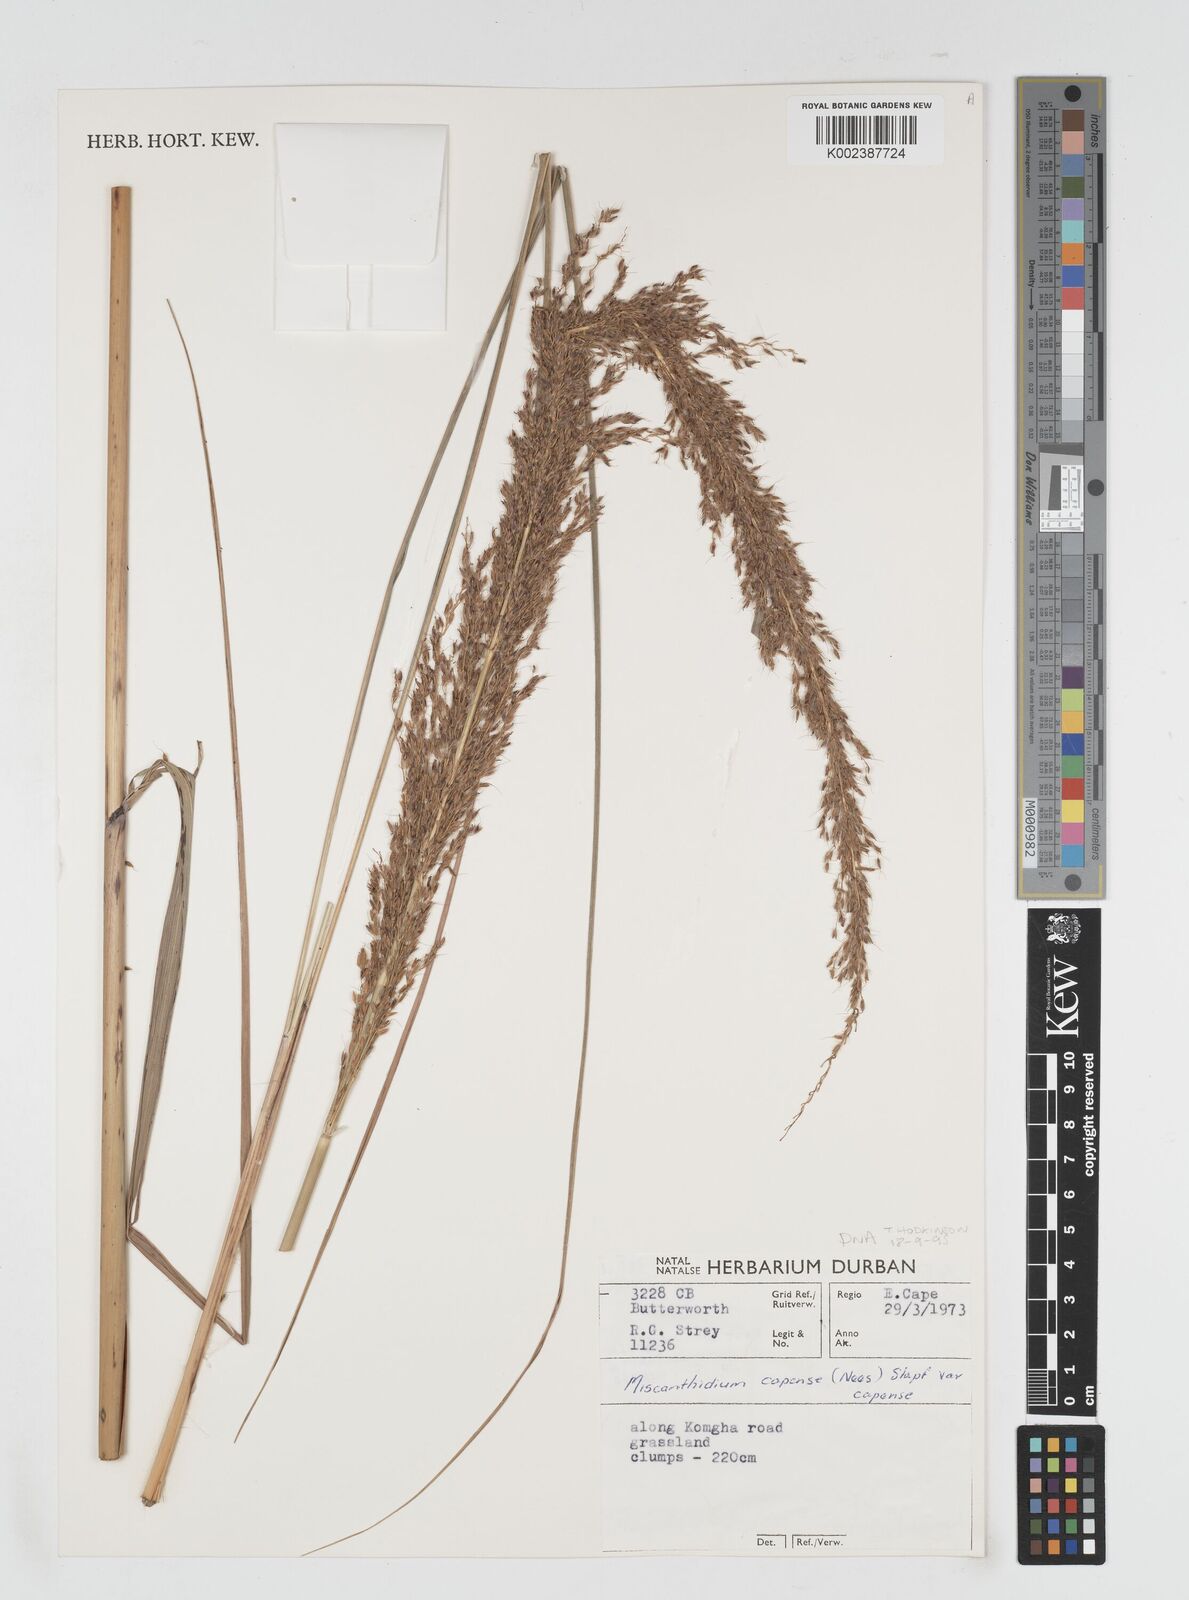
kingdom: Plantae
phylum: Tracheophyta
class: Liliopsida
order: Poales
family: Poaceae
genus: Miscanthus
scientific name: Miscanthus ecklonii
